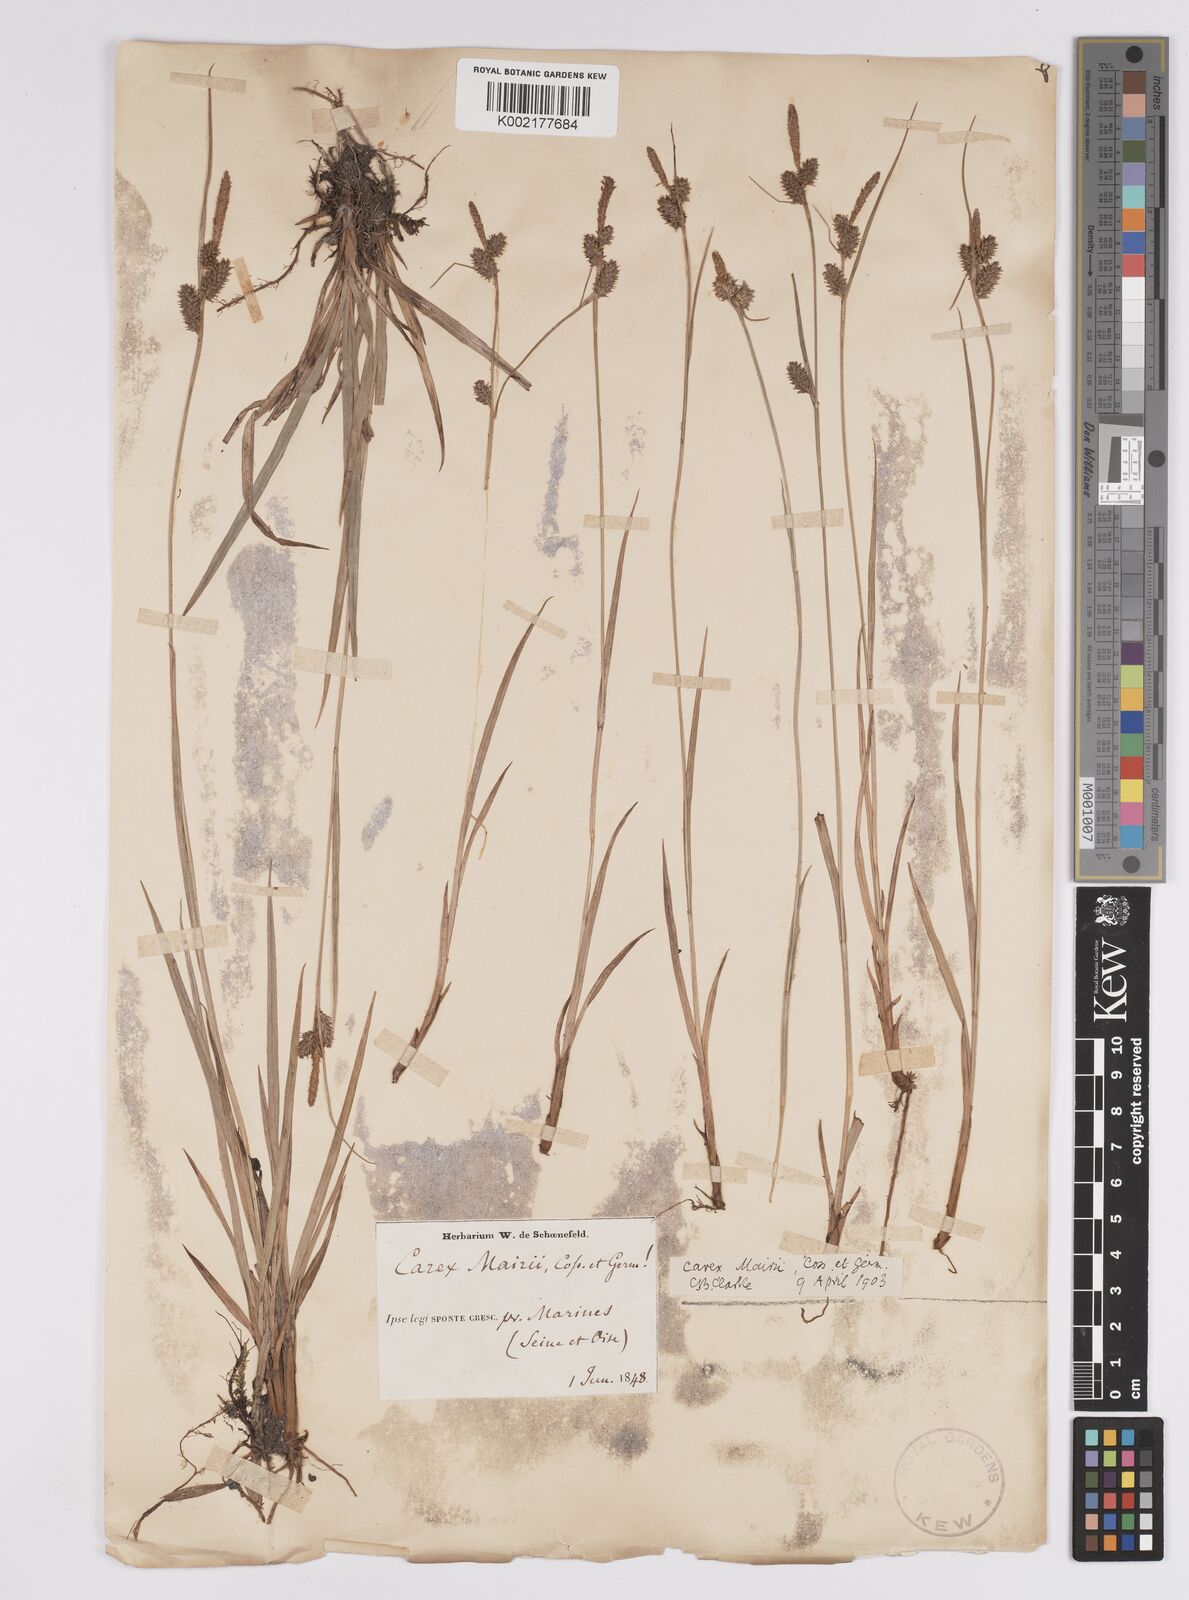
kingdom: Plantae
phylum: Tracheophyta
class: Liliopsida
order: Poales
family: Cyperaceae
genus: Carex
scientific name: Carex mairei
